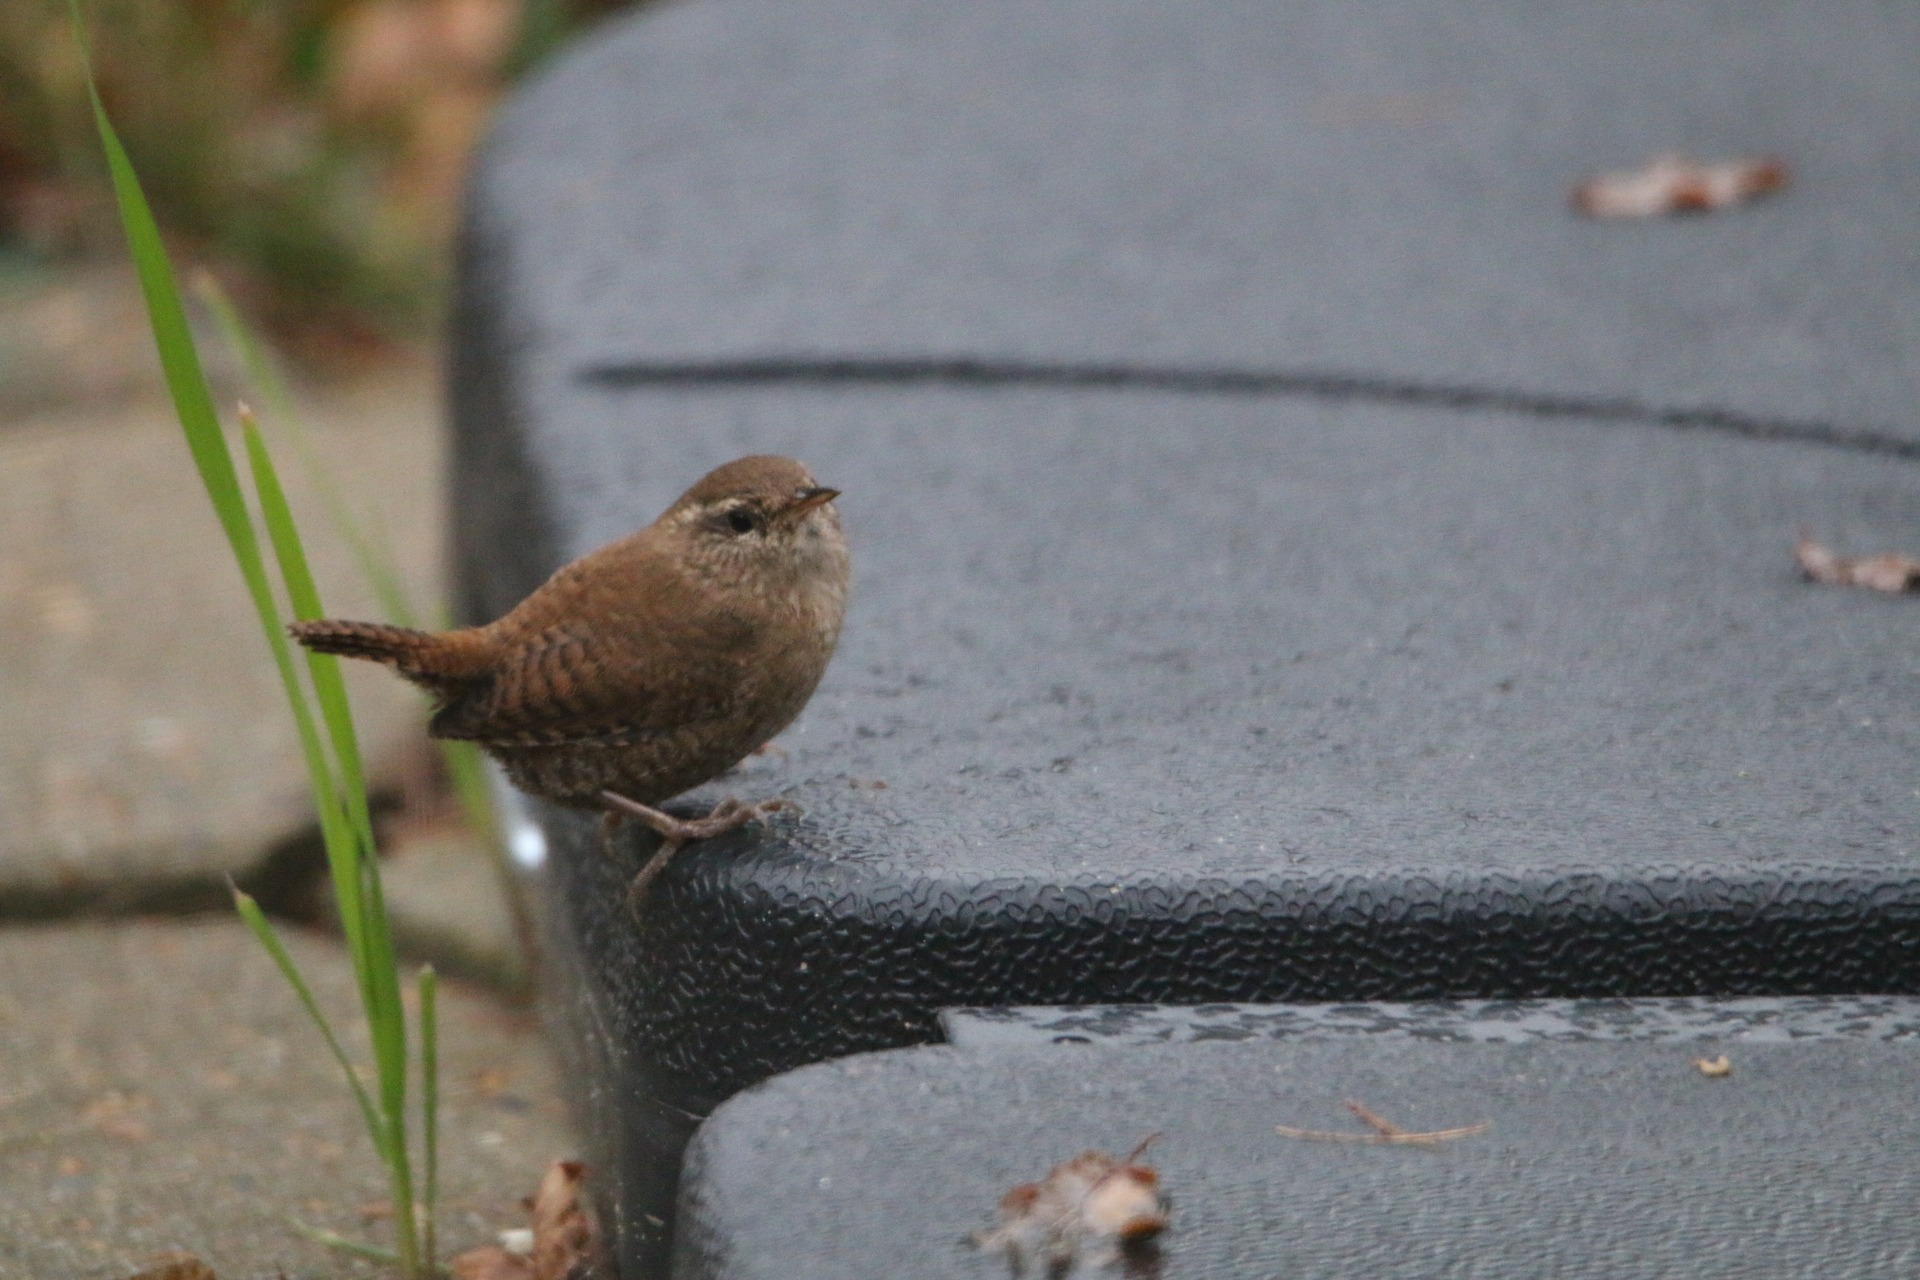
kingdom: Animalia
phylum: Chordata
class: Aves
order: Passeriformes
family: Troglodytidae
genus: Troglodytes
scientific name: Troglodytes troglodytes
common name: Gærdesmutte
